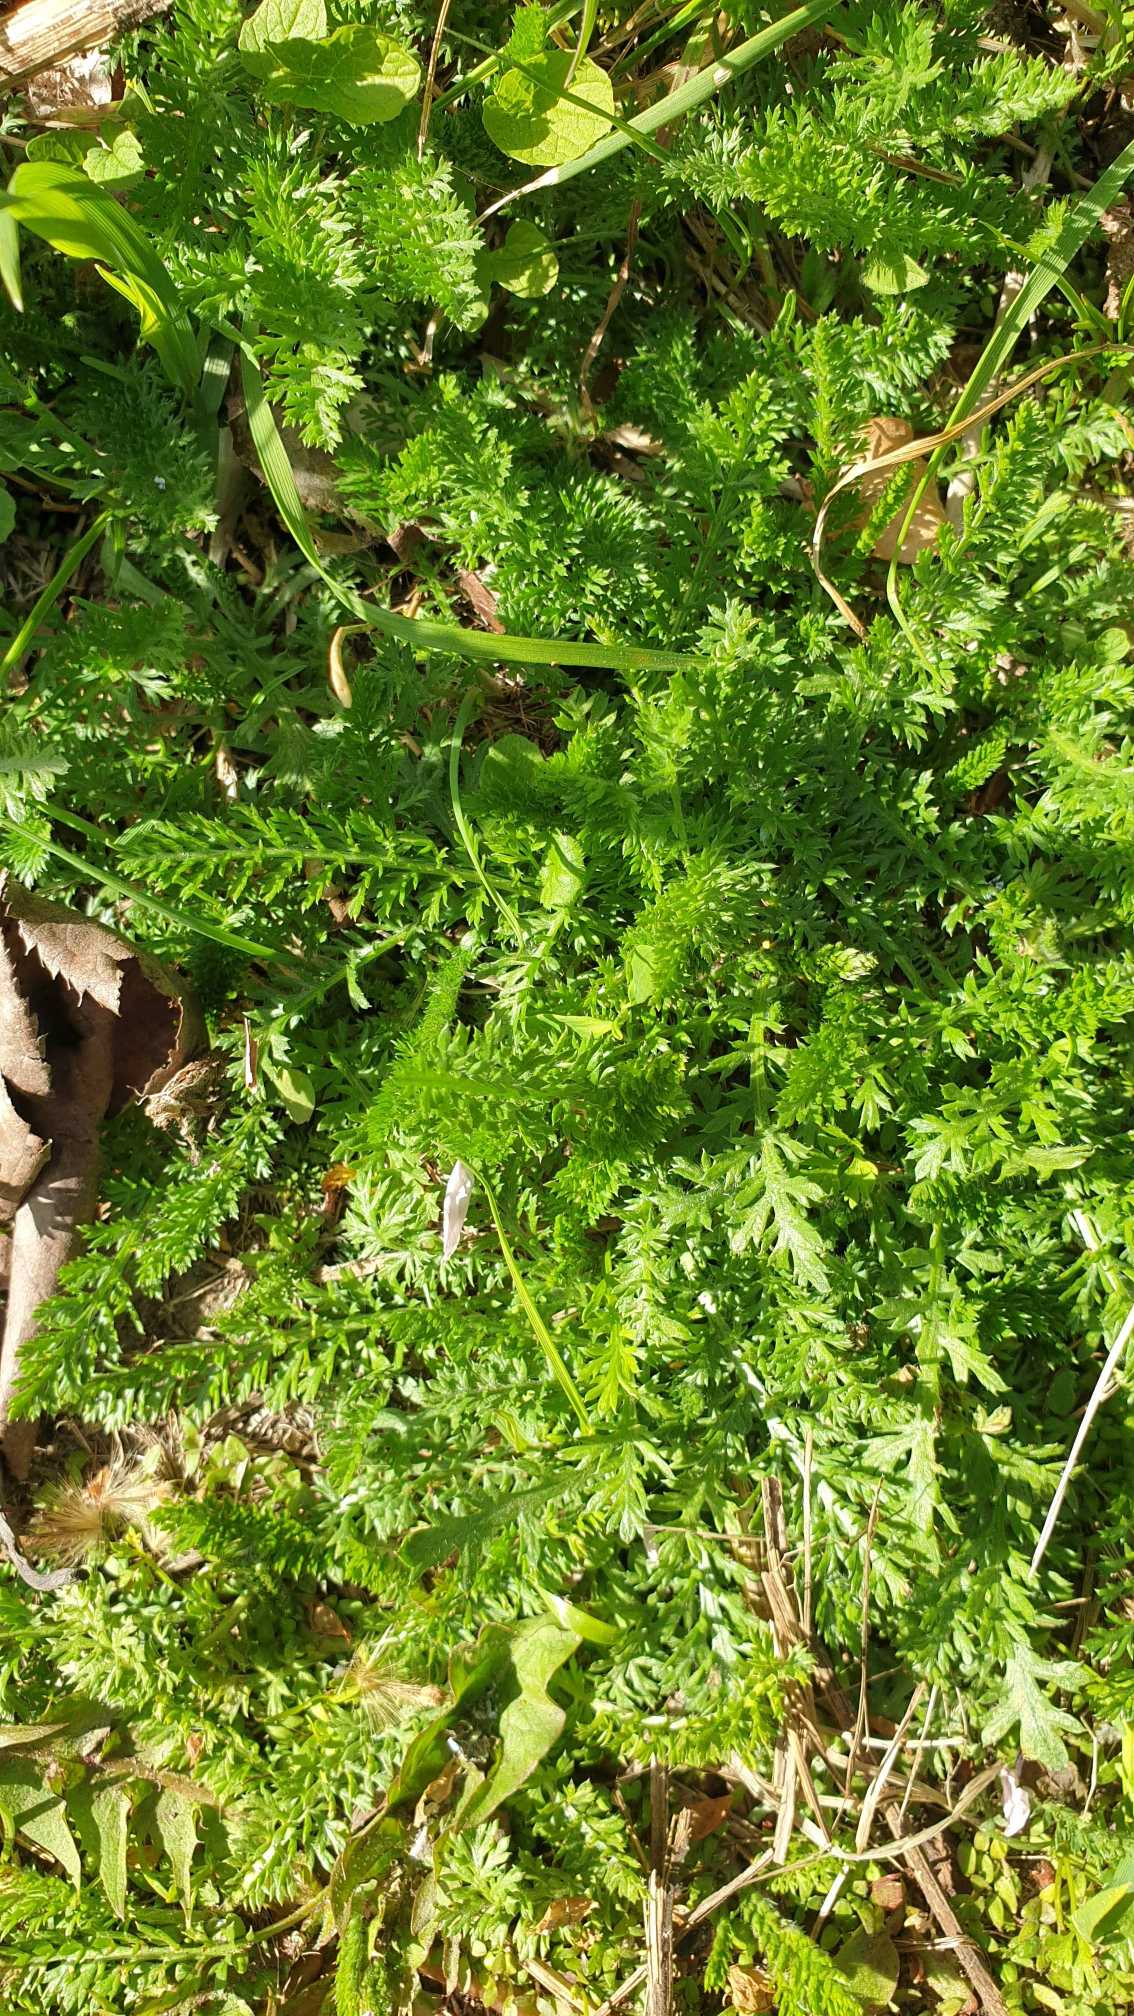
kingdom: Plantae
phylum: Tracheophyta
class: Magnoliopsida
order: Asterales
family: Asteraceae
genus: Achillea
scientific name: Achillea millefolium
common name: Almindelig røllike
